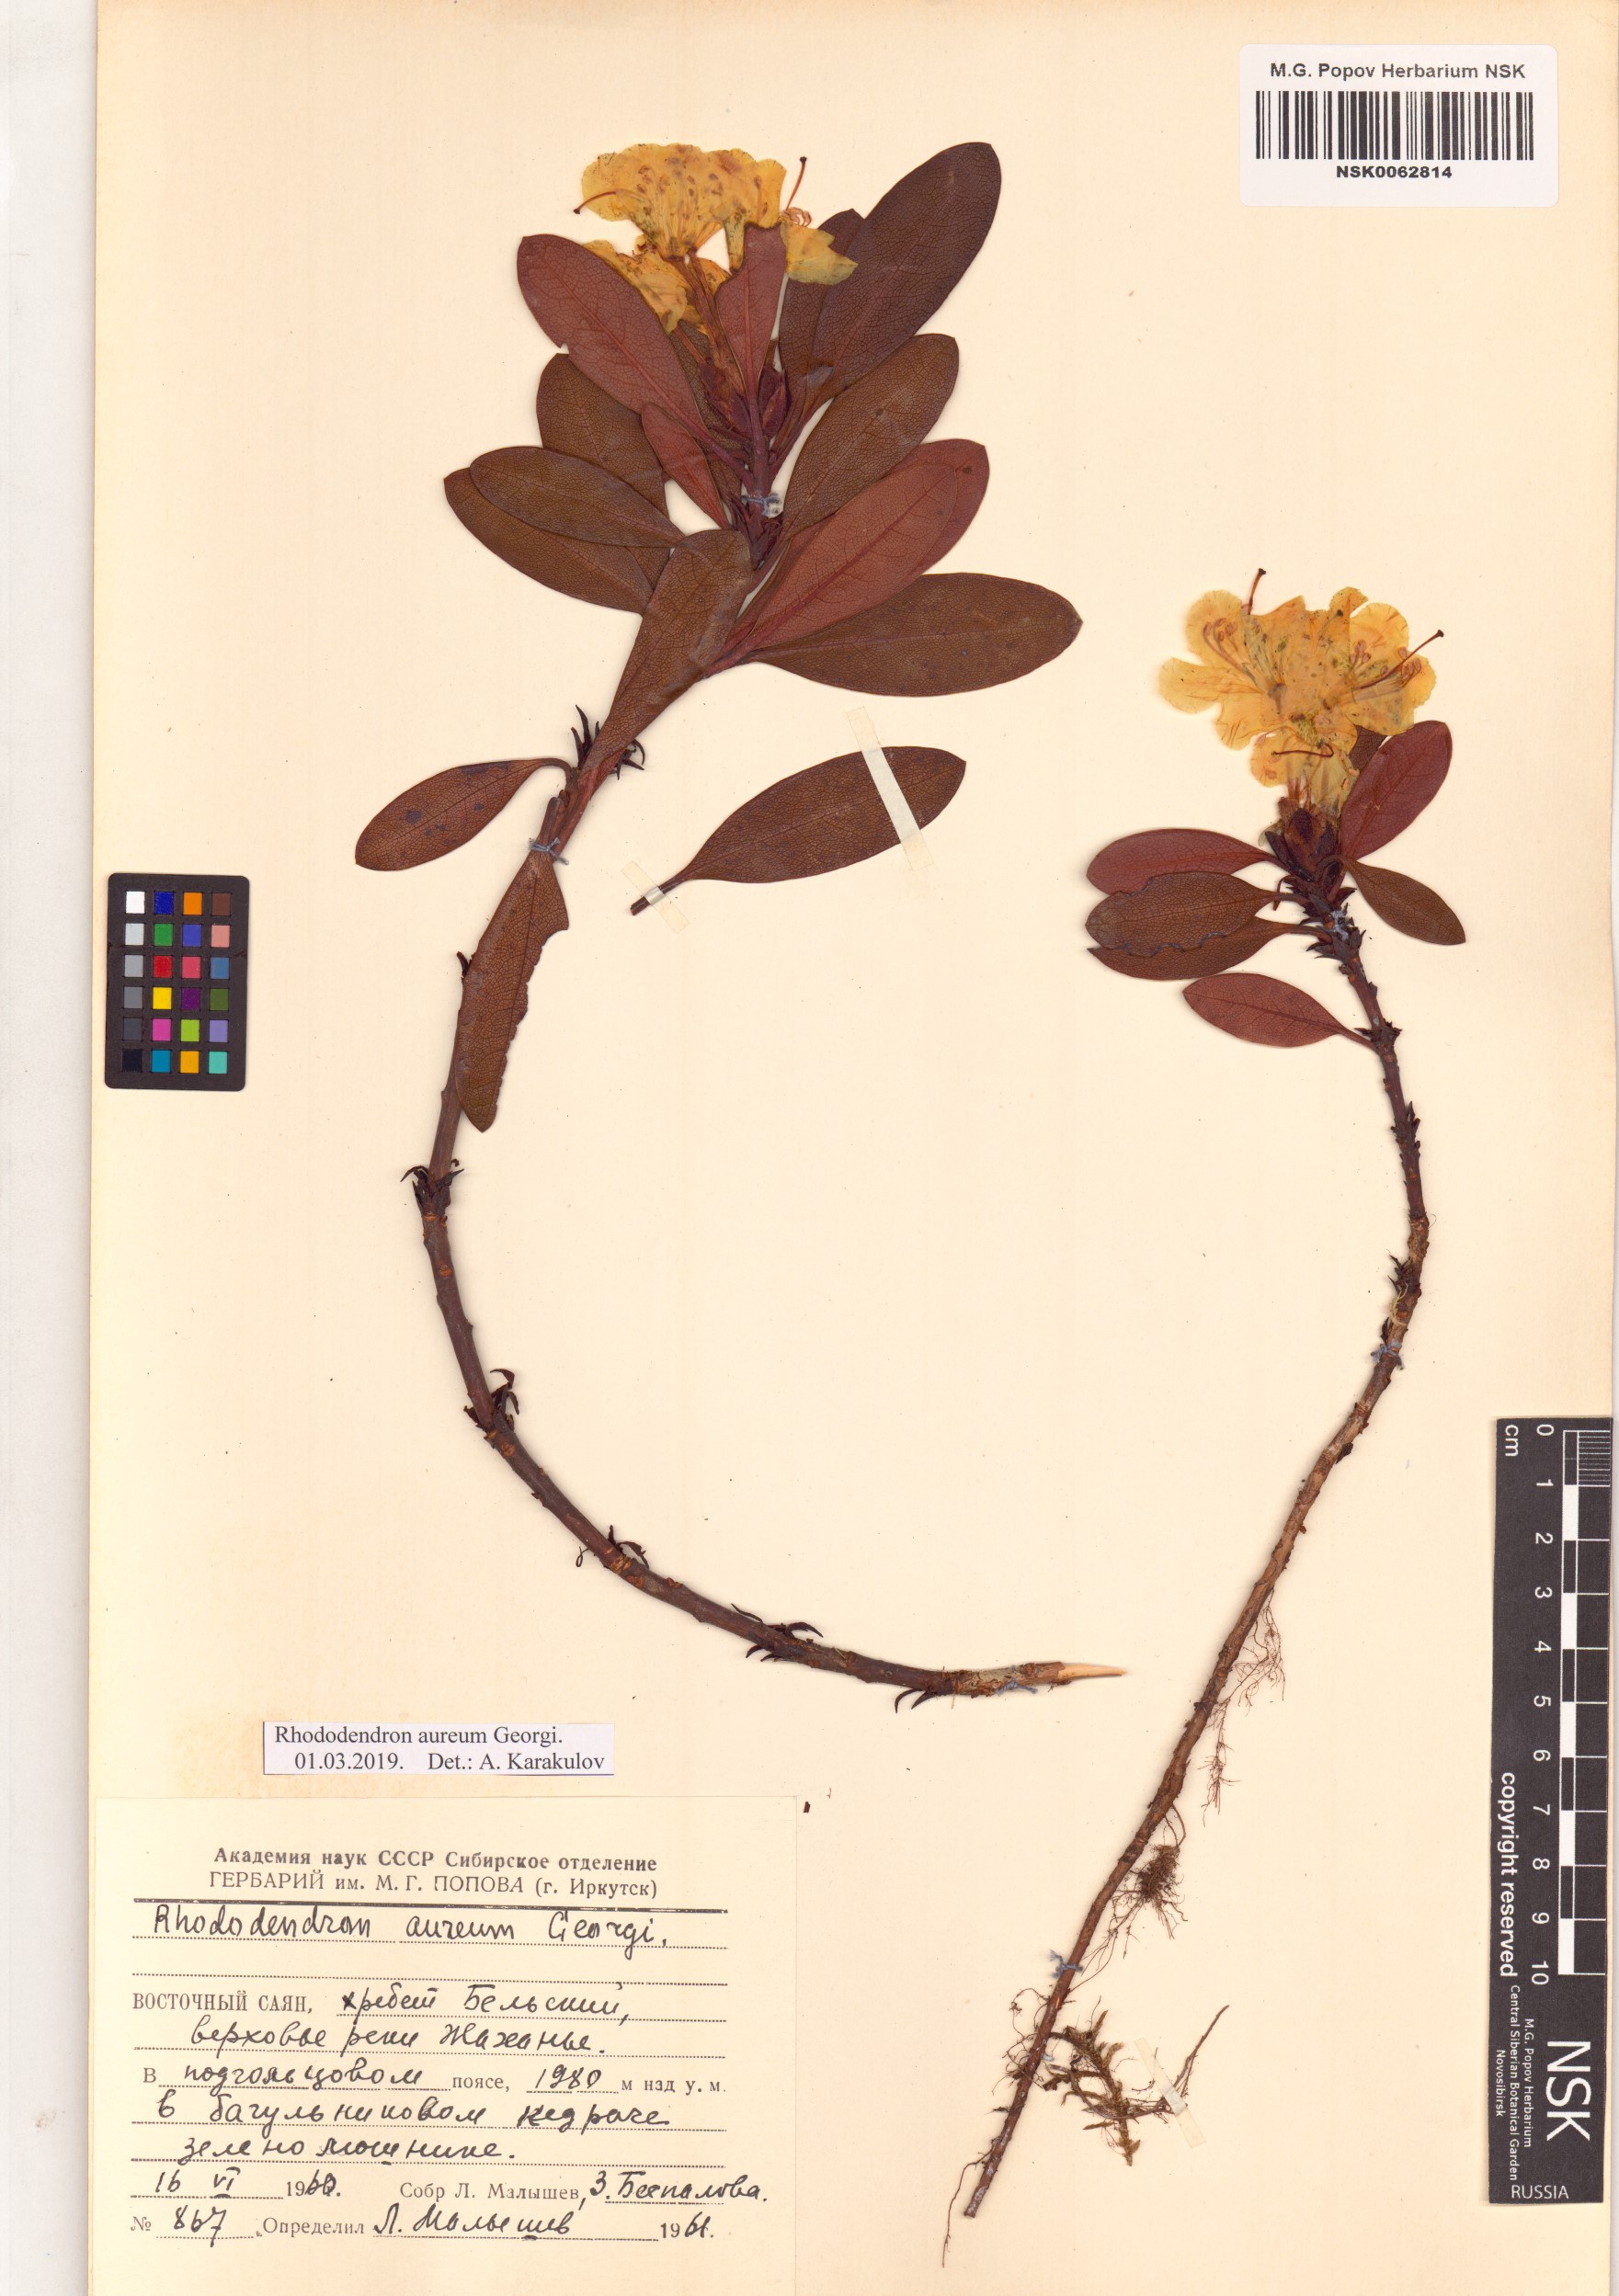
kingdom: Plantae
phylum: Tracheophyta
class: Magnoliopsida
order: Ericales
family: Ericaceae
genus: Rhododendron
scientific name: Rhododendron aureum
